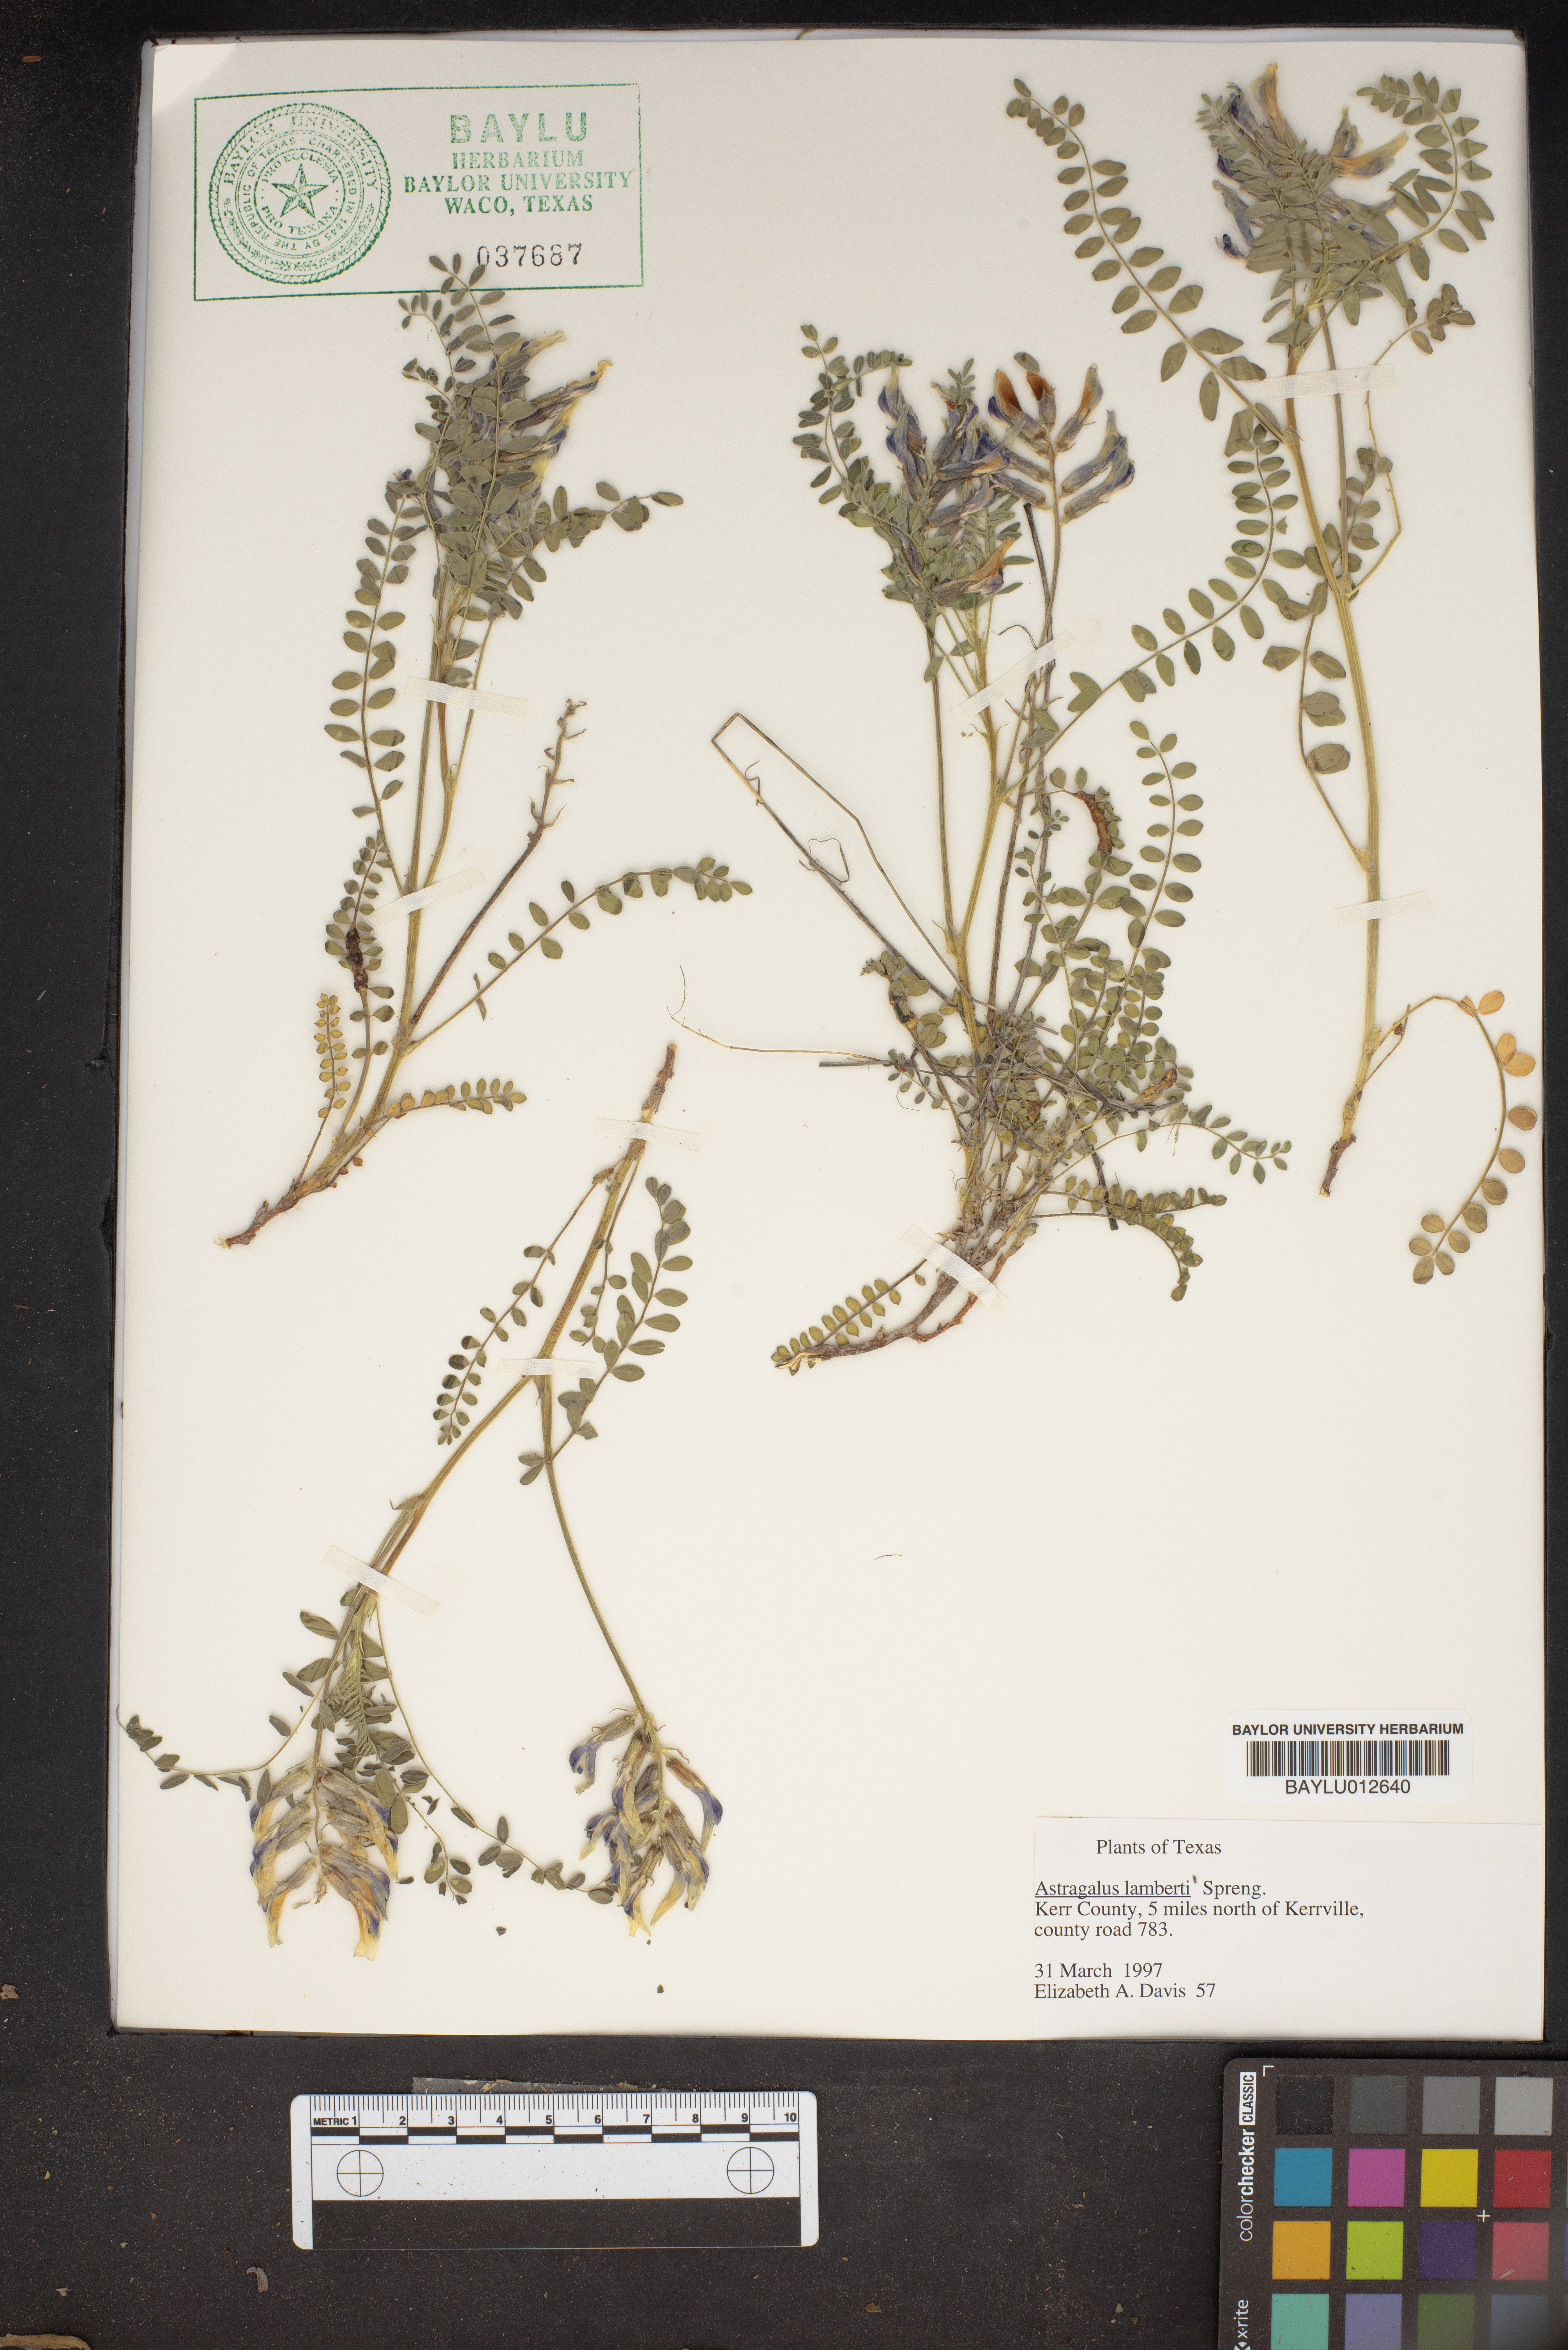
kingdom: Plantae
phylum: Tracheophyta
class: Magnoliopsida
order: Fabales
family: Fabaceae
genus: Oxytropis
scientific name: Oxytropis lambertii
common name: Purple locoweed
